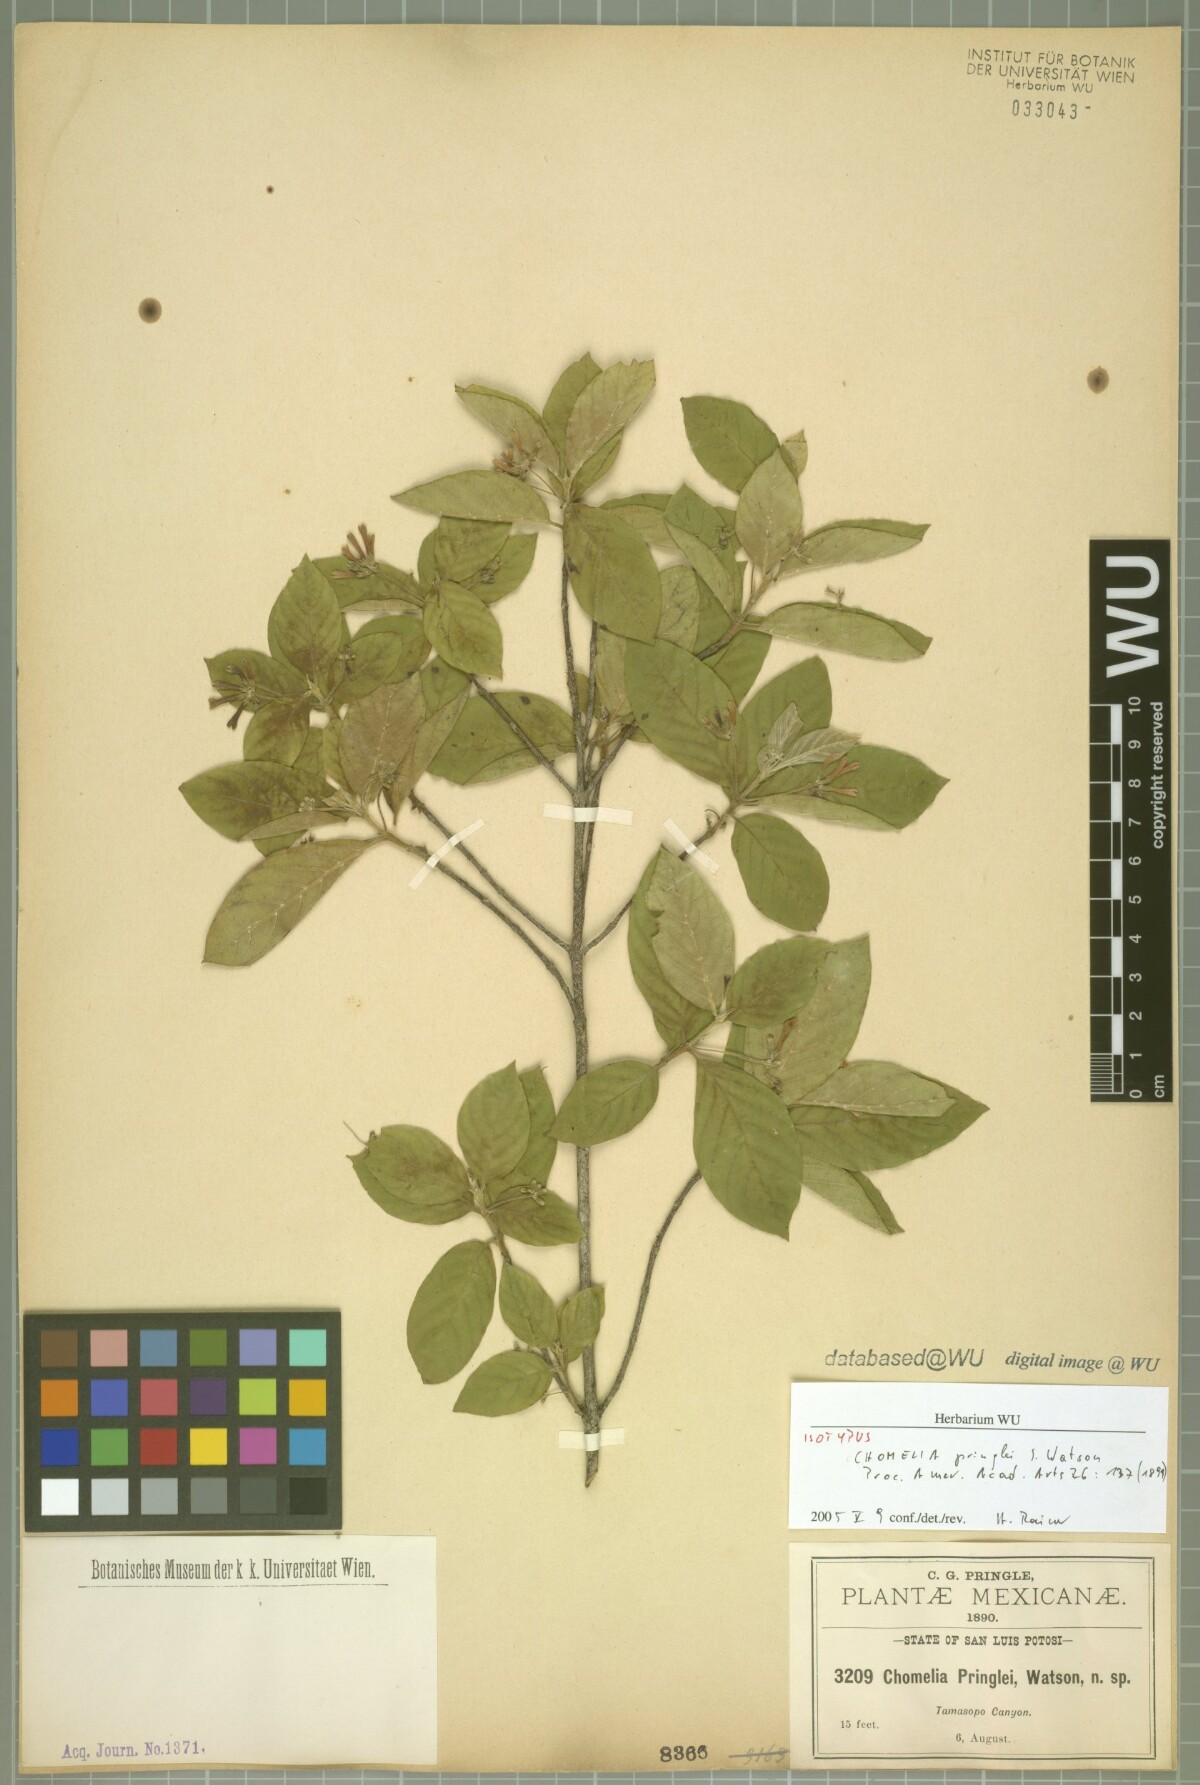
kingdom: Plantae
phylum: Tracheophyta
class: Magnoliopsida
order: Gentianales
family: Rubiaceae
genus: Chomelia
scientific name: Chomelia pringlei
